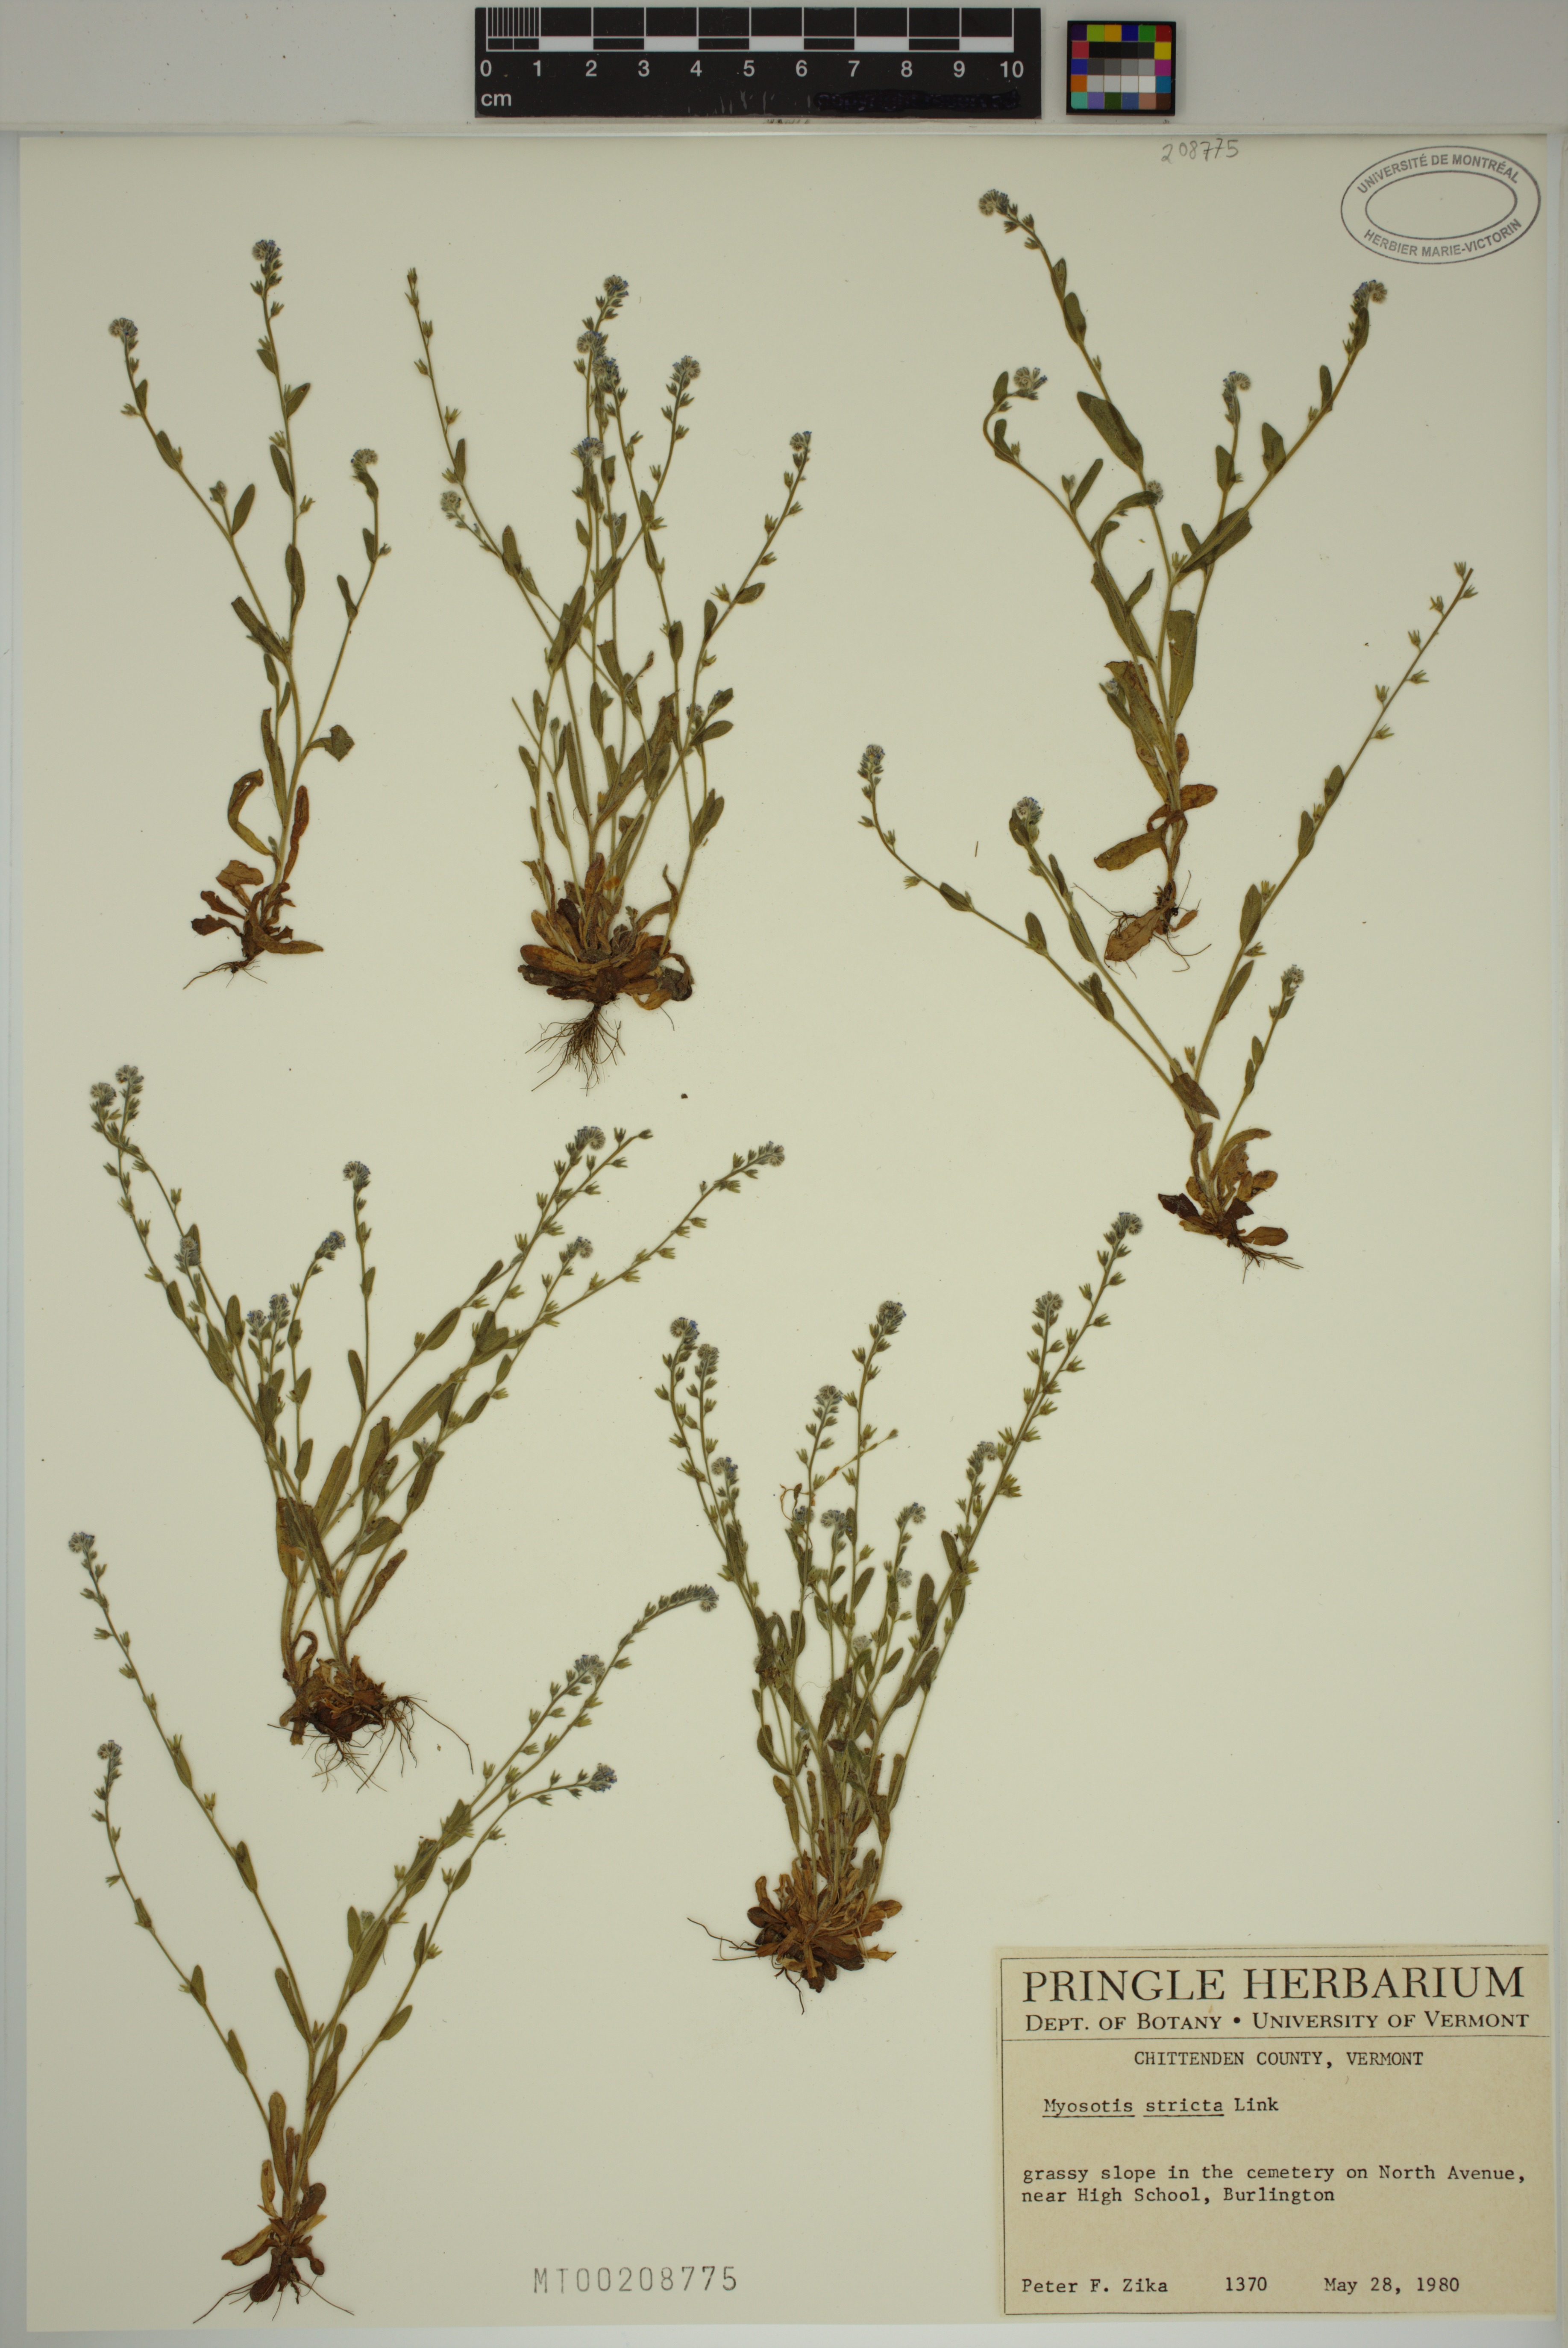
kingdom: Plantae
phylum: Tracheophyta
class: Magnoliopsida
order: Boraginales
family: Boraginaceae
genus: Myosotis
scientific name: Myosotis stricta
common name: Strict forget-me-not
